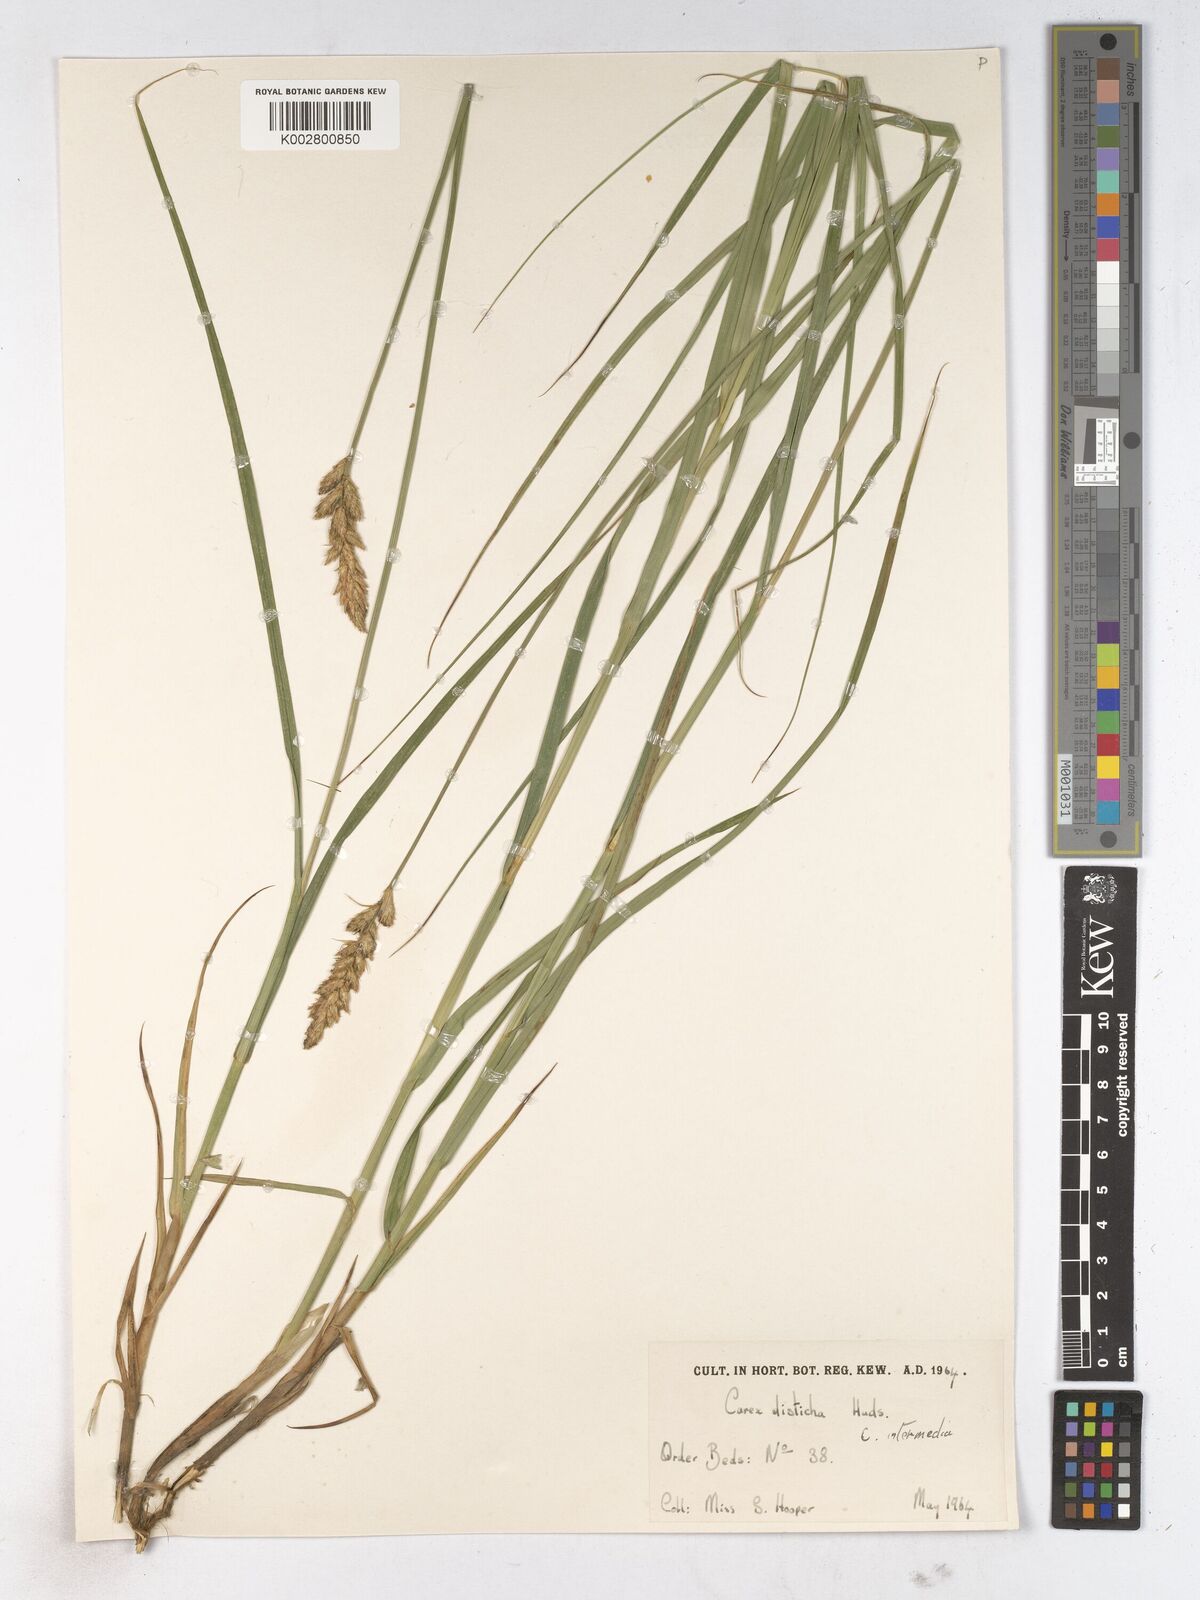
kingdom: Plantae
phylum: Tracheophyta
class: Liliopsida
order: Poales
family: Cyperaceae
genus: Carex
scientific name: Carex comans
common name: Longwood tussock
